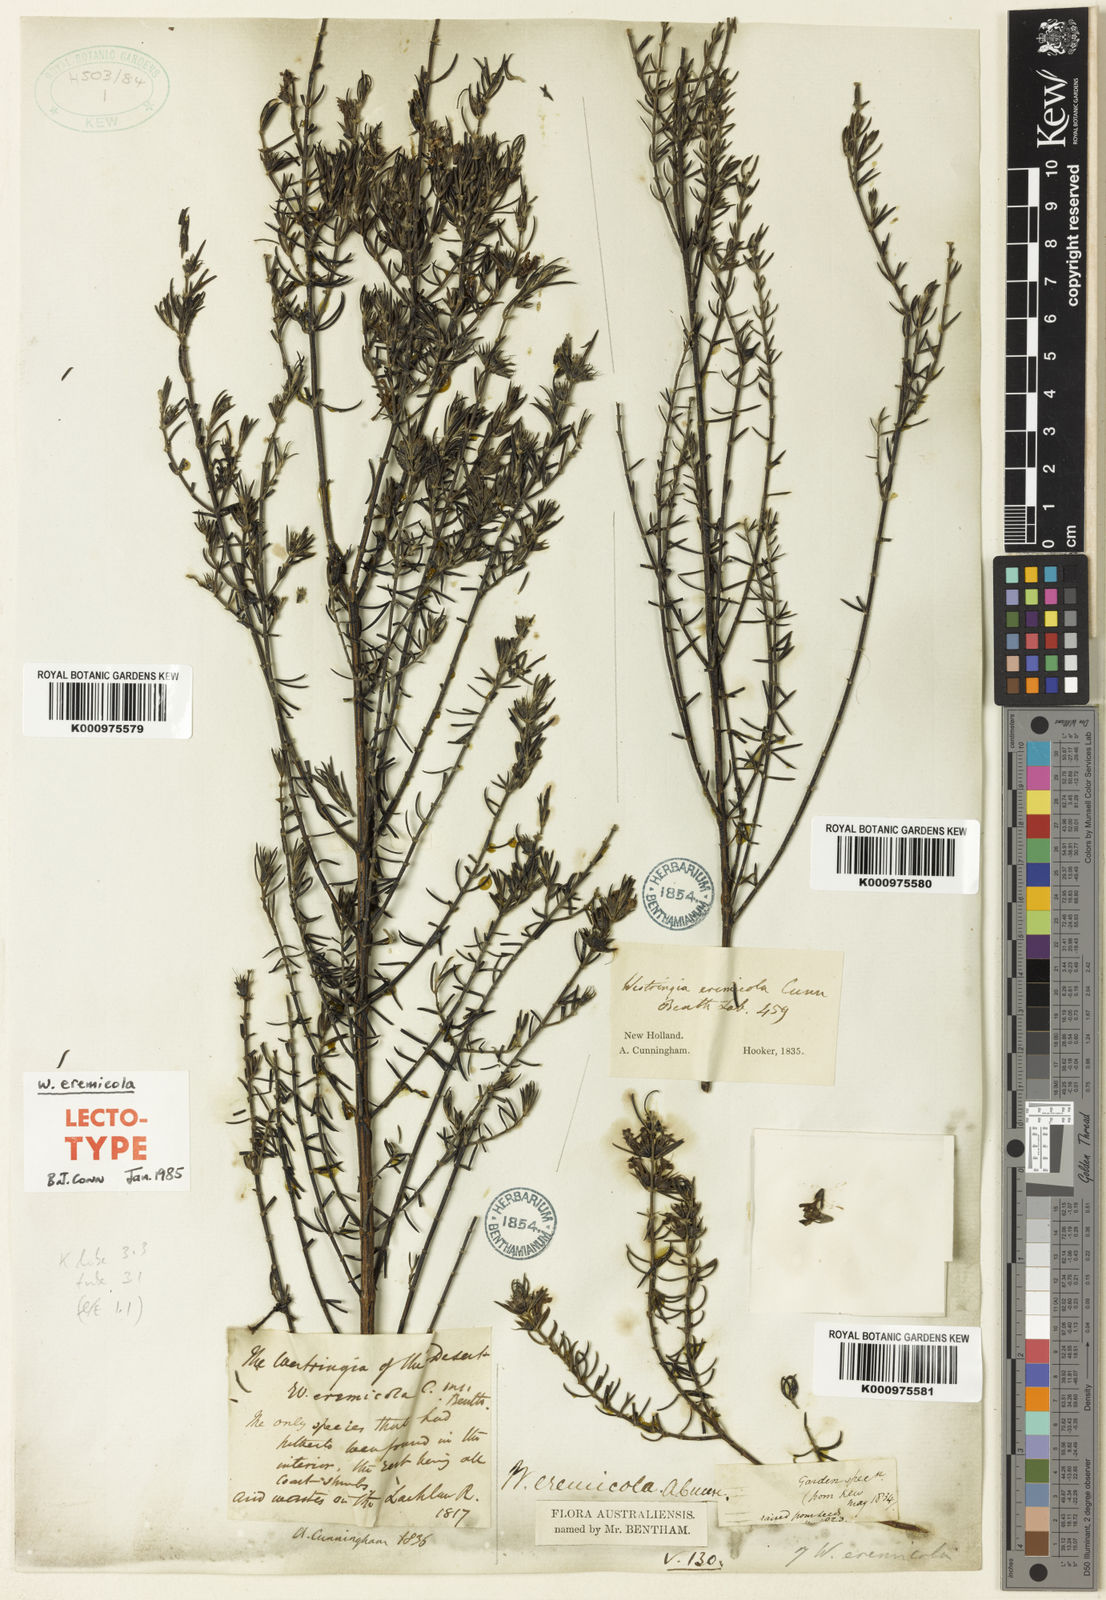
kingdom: Plantae
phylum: Tracheophyta
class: Magnoliopsida
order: Lamiales
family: Lamiaceae
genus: Westringia
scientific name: Westringia eremicola
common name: Slender western-rosemary
